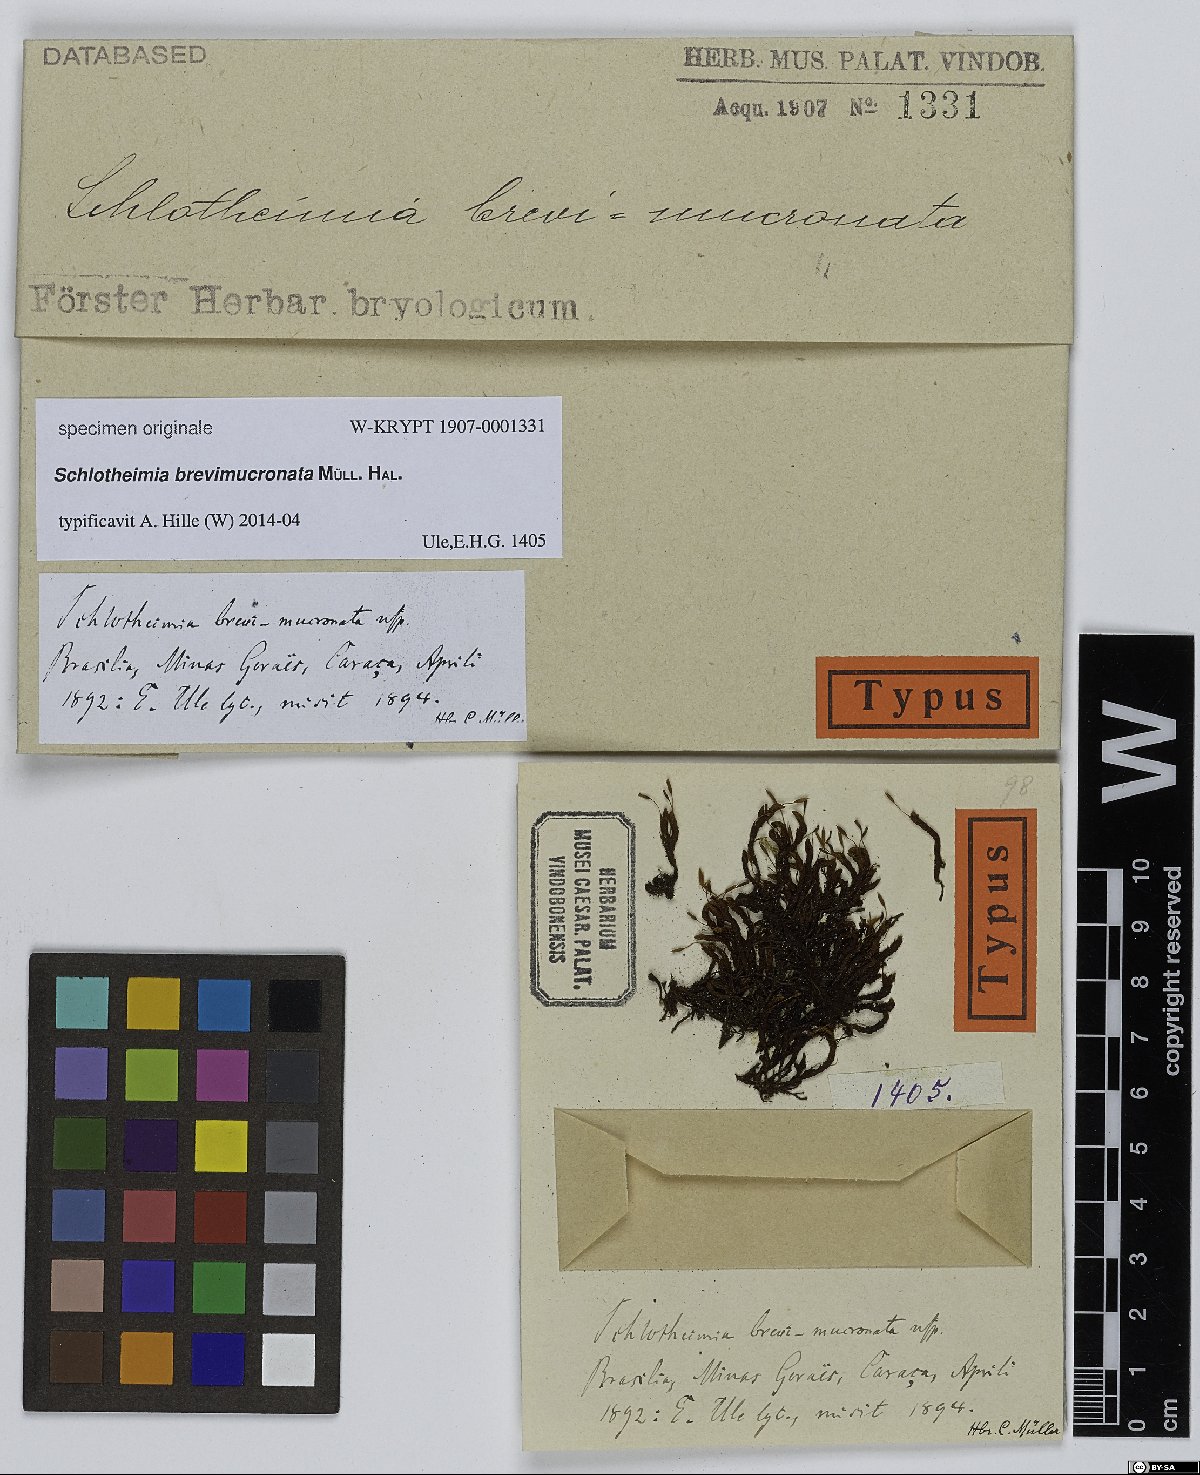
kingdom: Plantae
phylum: Bryophyta
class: Bryopsida
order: Orthotrichales
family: Orthotrichaceae
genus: Schlotheimia
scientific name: Schlotheimia
